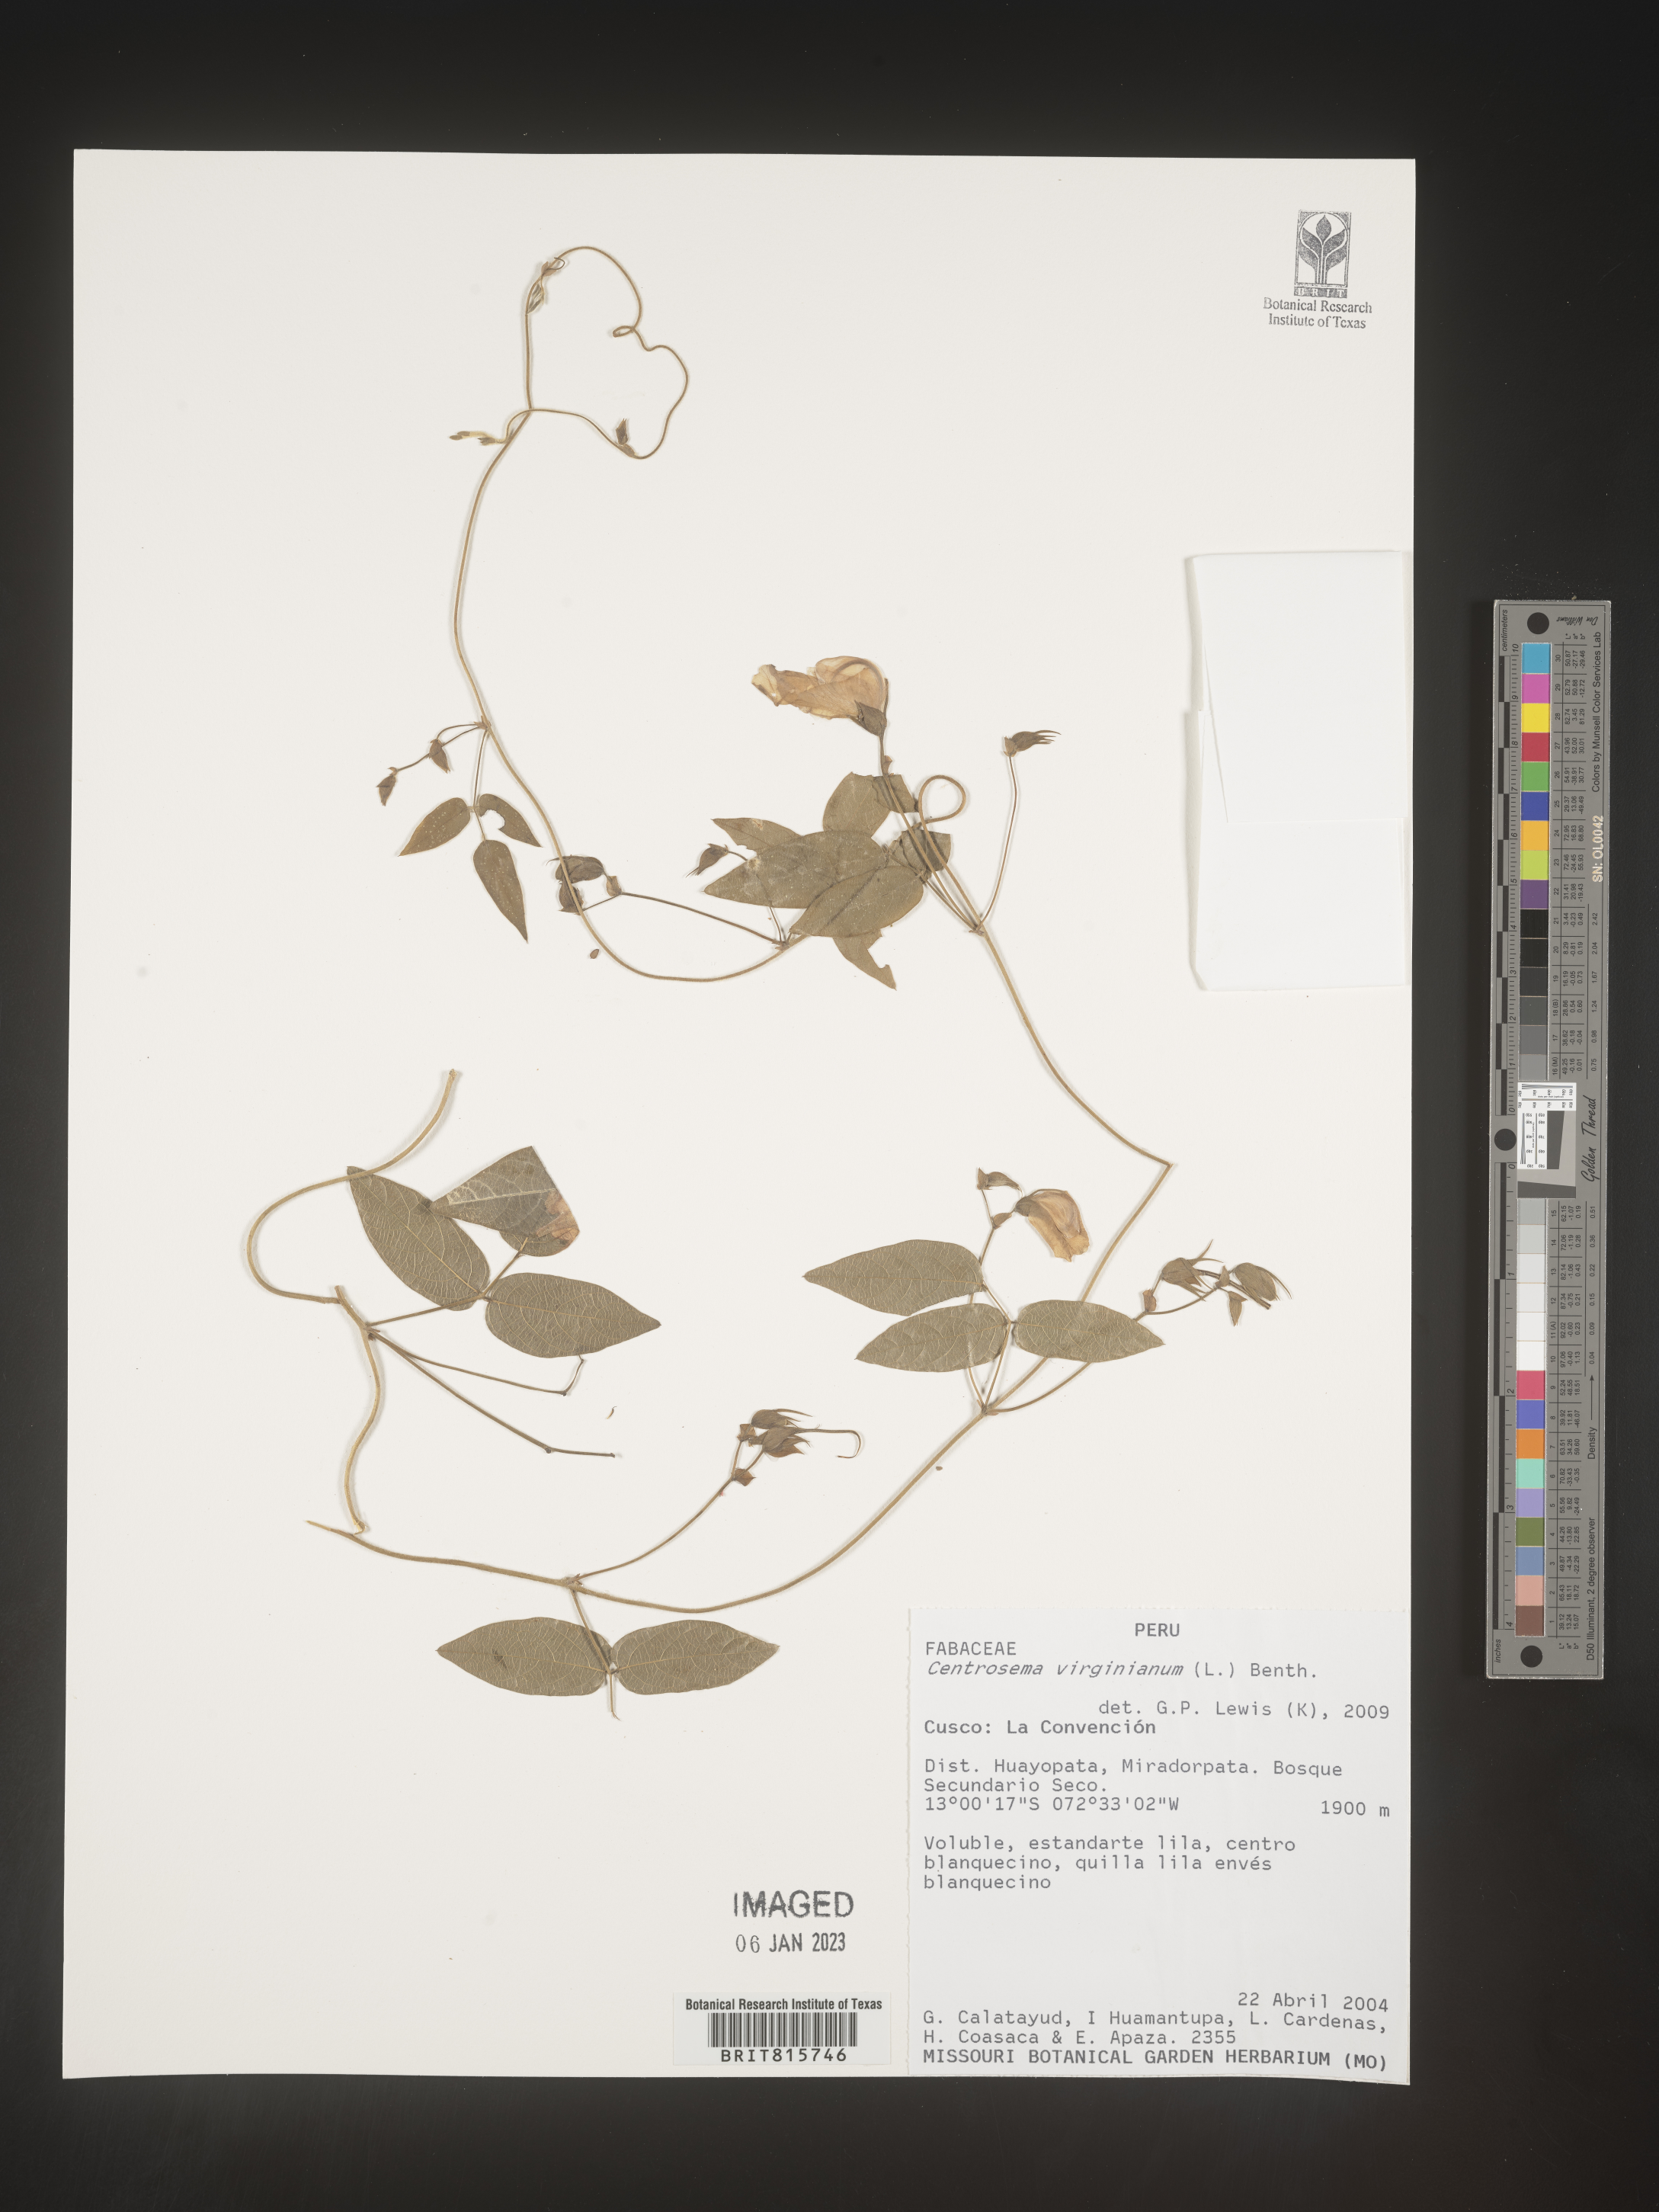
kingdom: Plantae
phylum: Tracheophyta
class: Magnoliopsida
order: Fabales
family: Fabaceae
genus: Centrosema
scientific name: Centrosema
